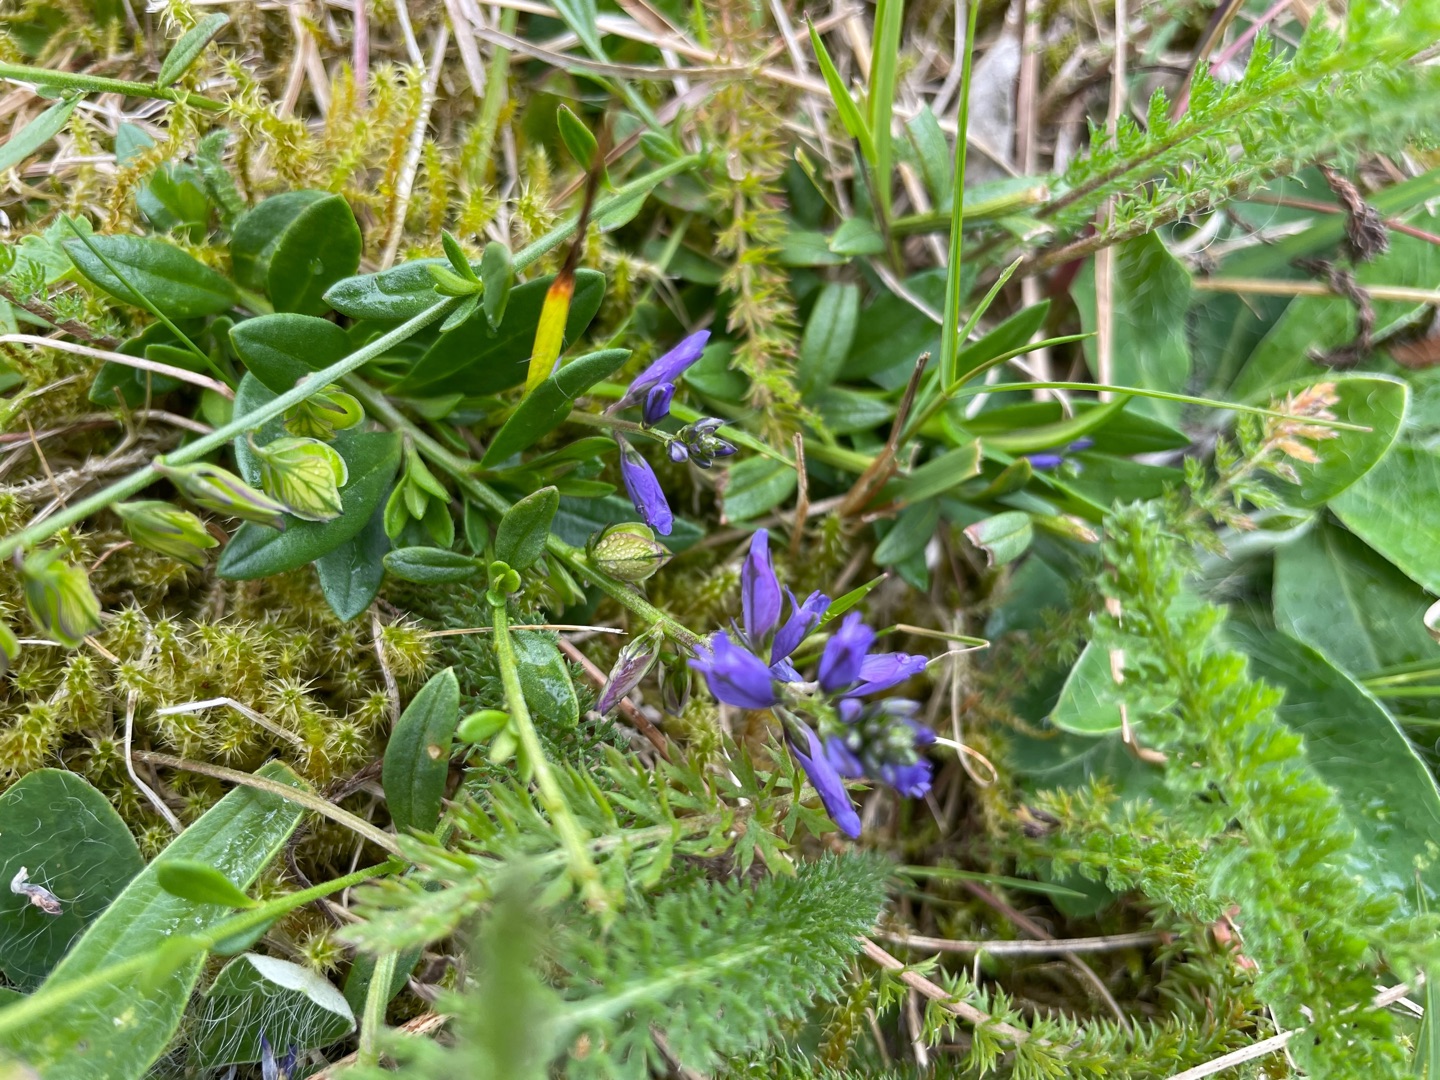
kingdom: Plantae
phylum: Tracheophyta
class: Magnoliopsida
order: Fabales
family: Polygalaceae
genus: Polygala
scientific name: Polygala vulgaris
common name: Almindelig mælkeurt
